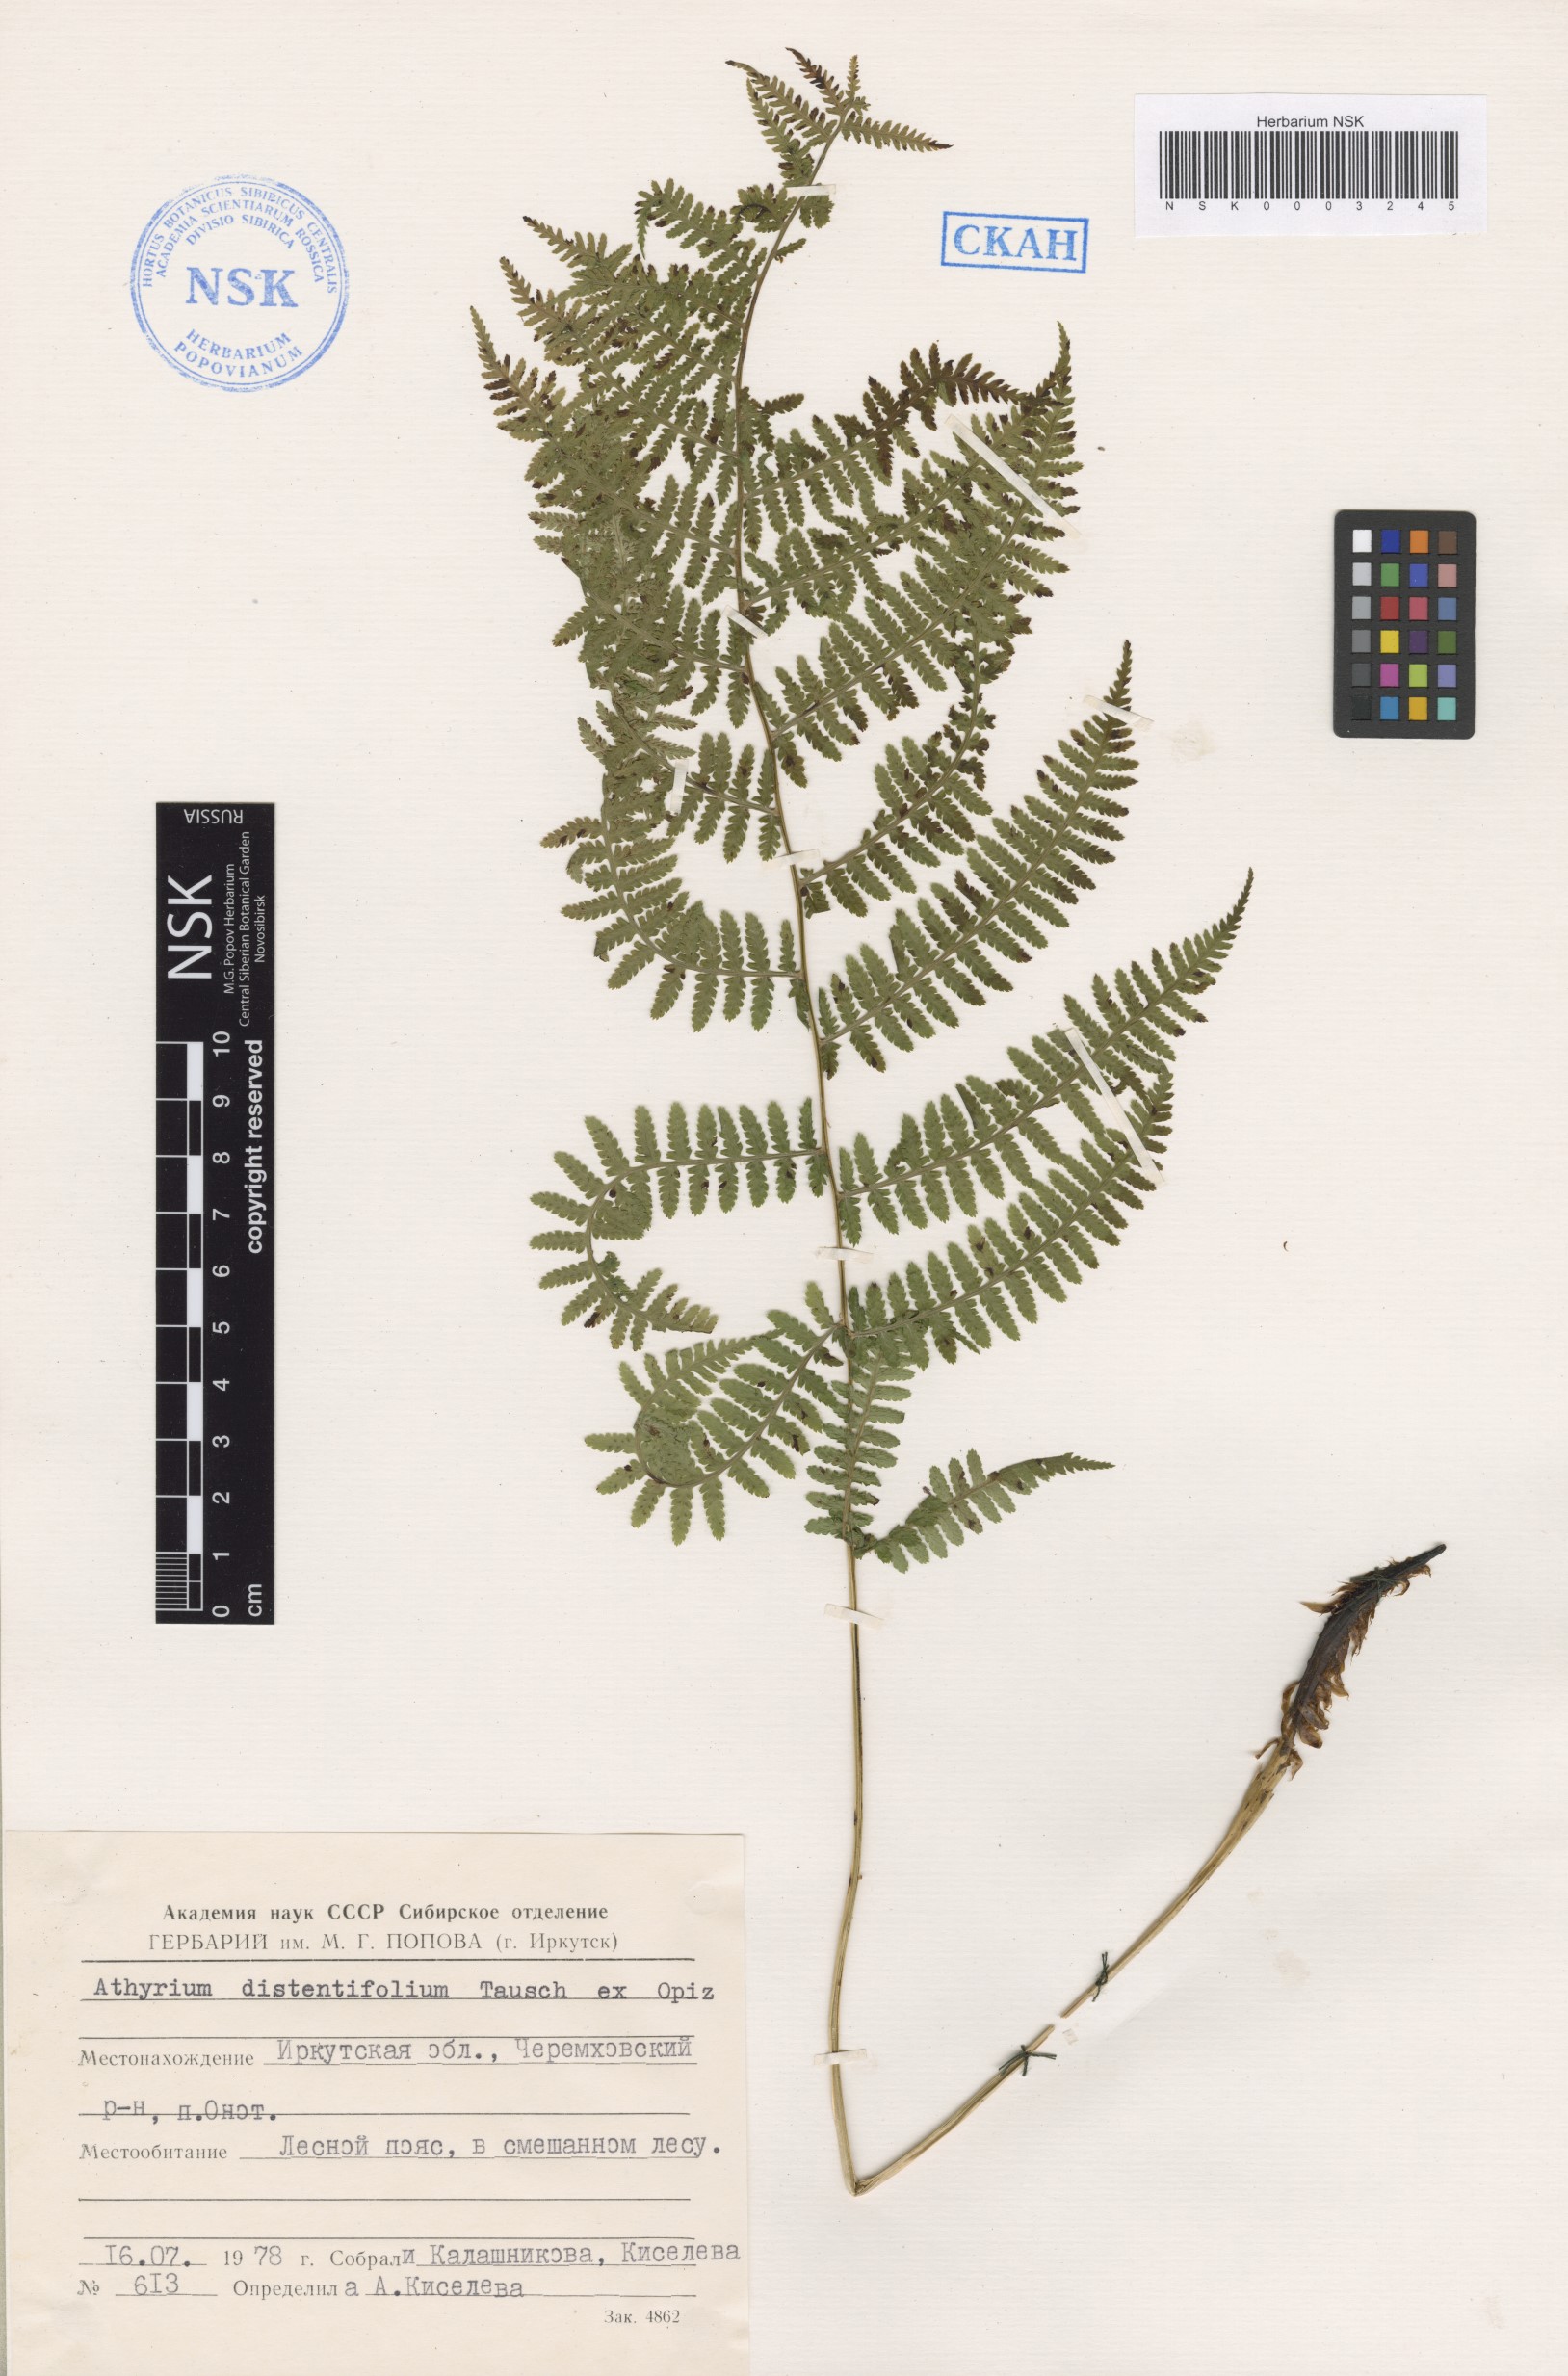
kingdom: Plantae
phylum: Tracheophyta
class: Polypodiopsida
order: Polypodiales
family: Athyriaceae
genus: Pseudathyrium
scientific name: Pseudathyrium alpestre
